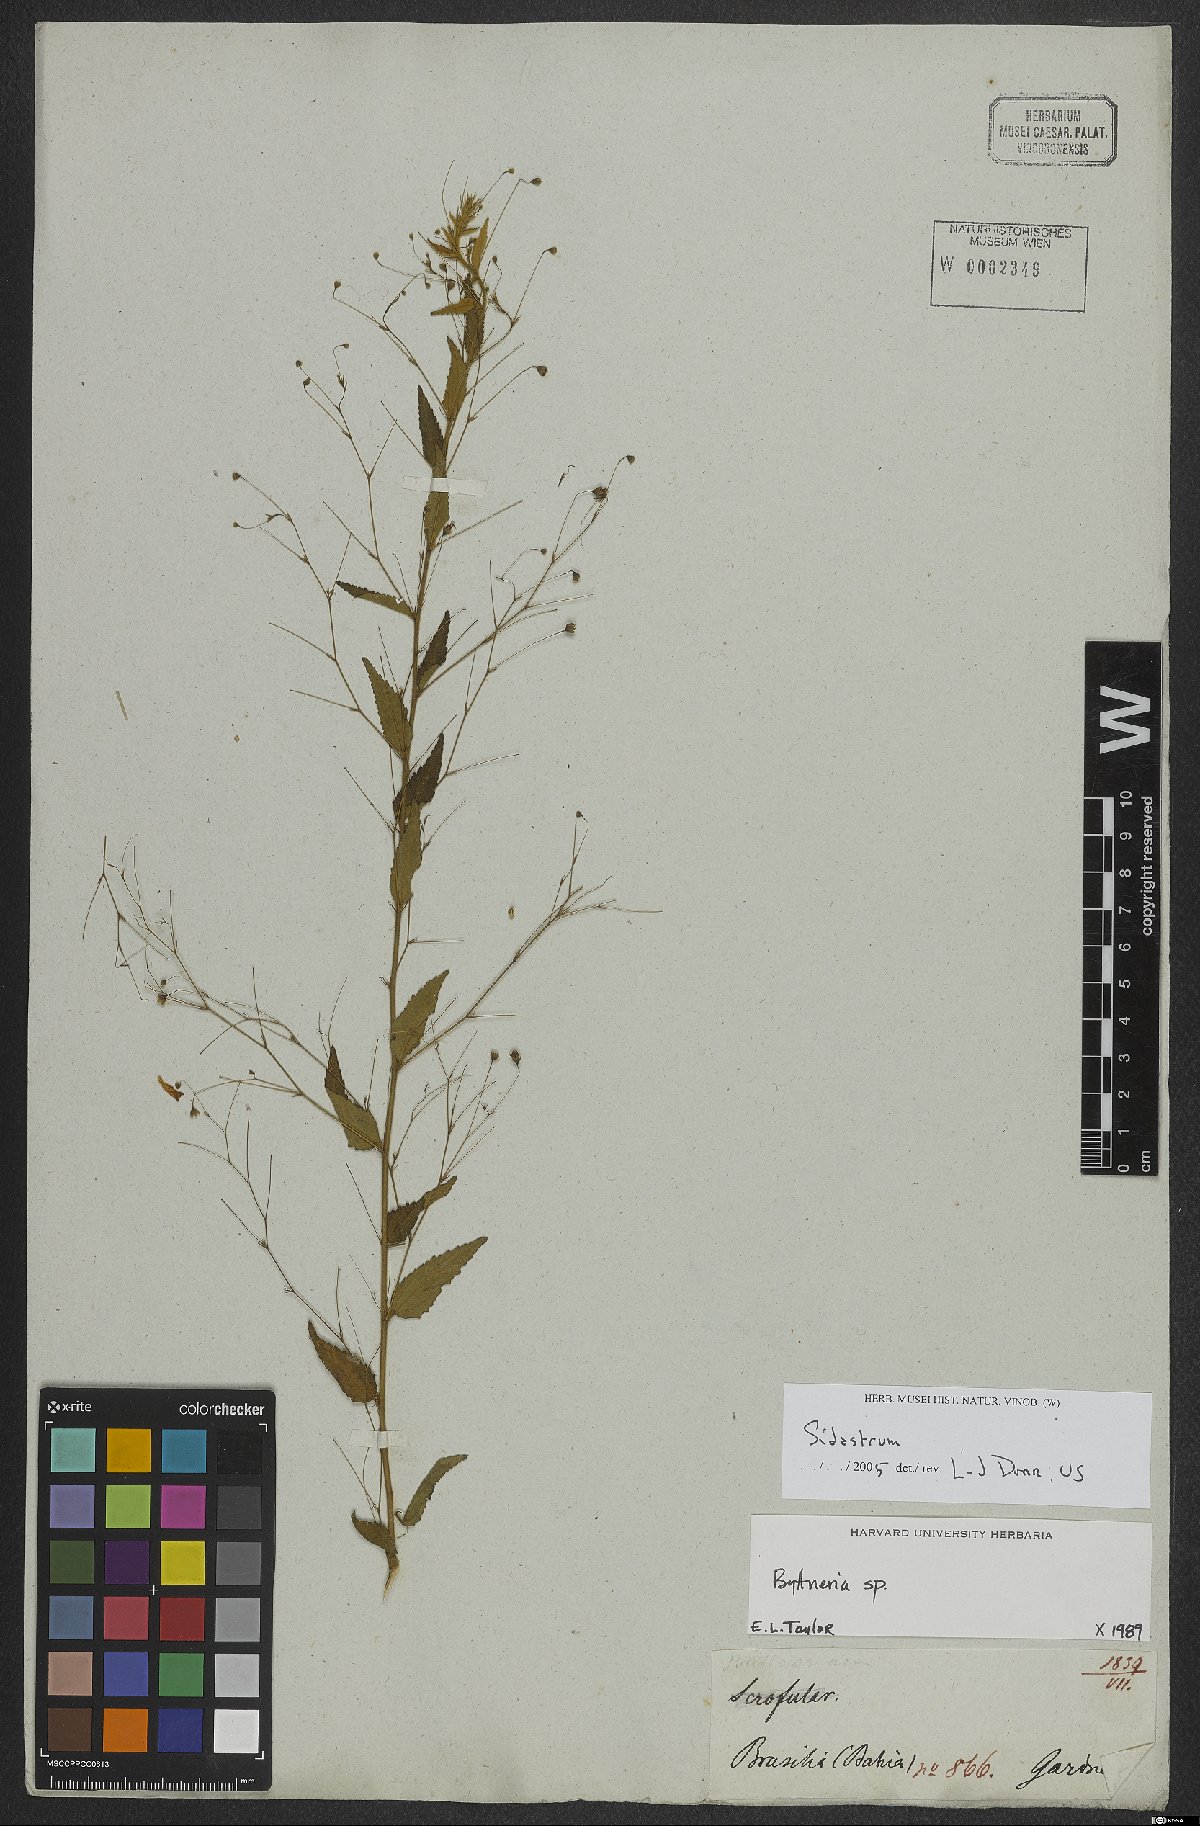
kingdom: Plantae
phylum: Tracheophyta
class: Magnoliopsida
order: Malvales
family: Malvaceae
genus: Sidastrum
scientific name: Sidastrum
